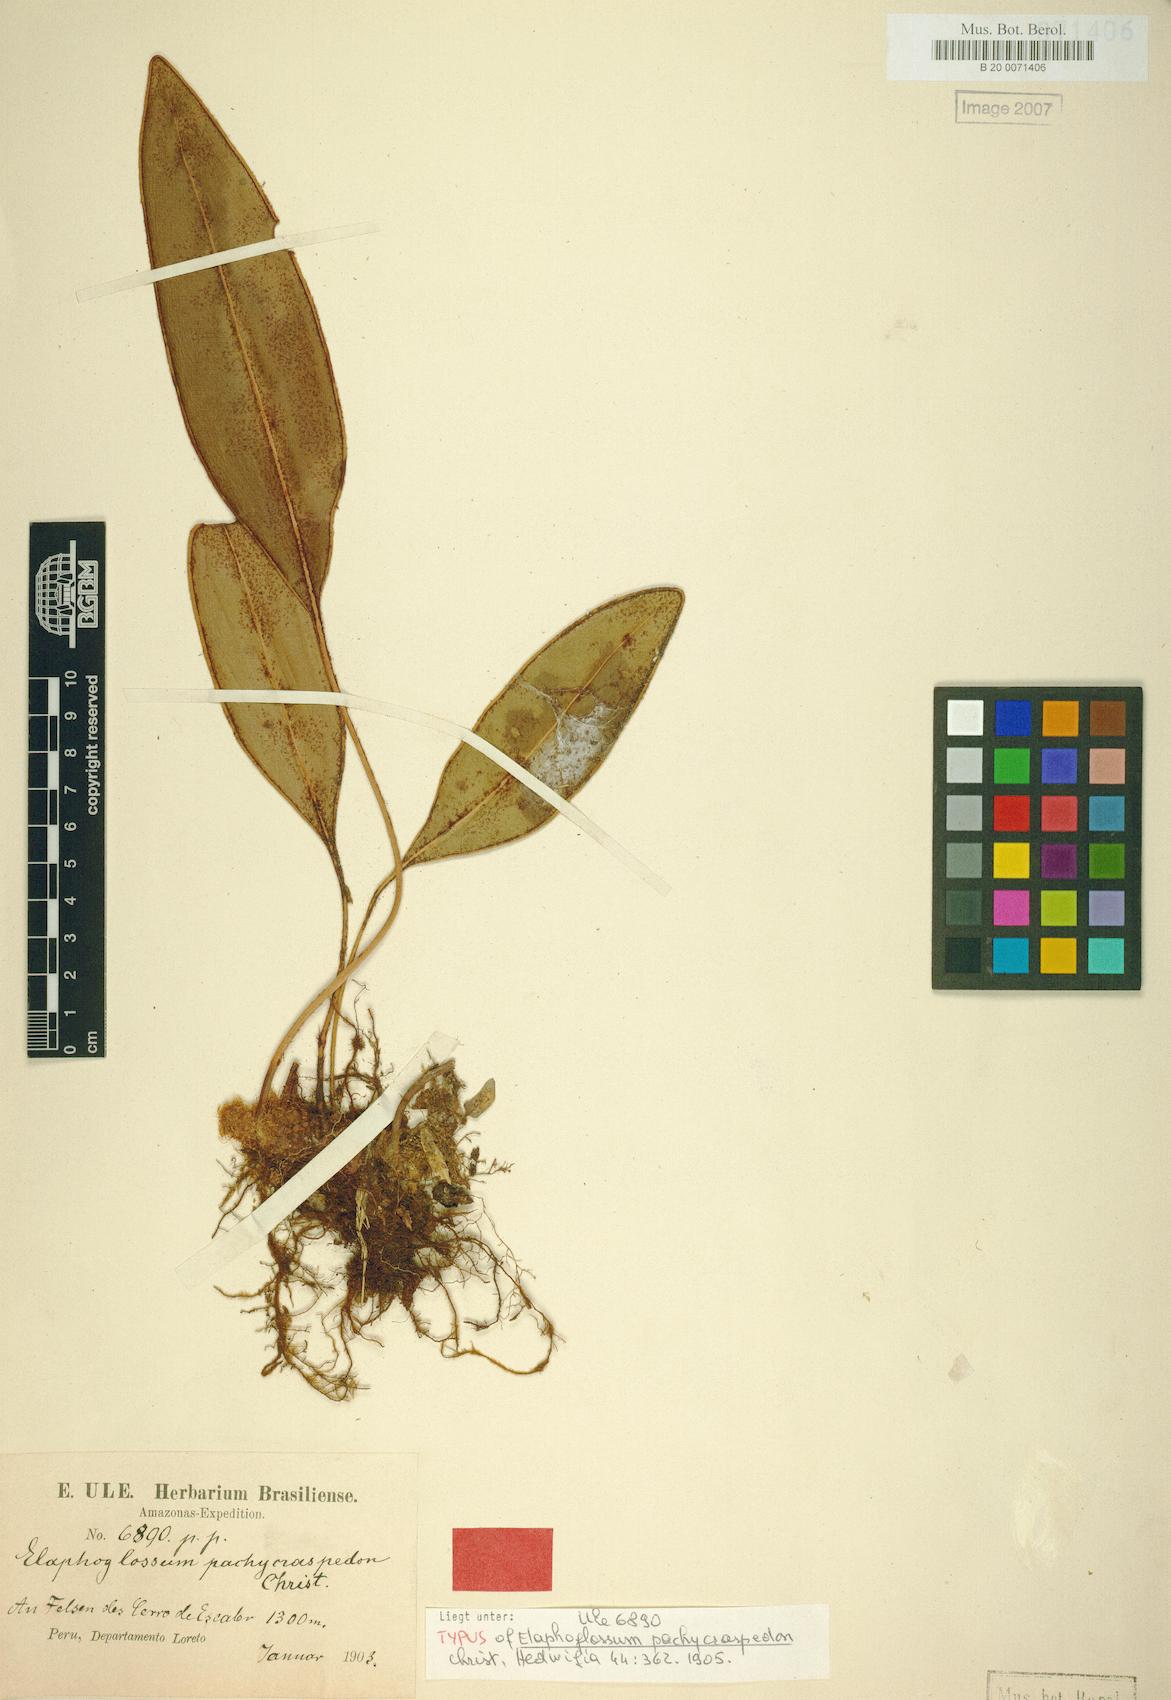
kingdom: Plantae
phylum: Tracheophyta
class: Polypodiopsida
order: Polypodiales
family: Dryopteridaceae
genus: Elaphoglossum
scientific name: Elaphoglossum pachycraspedon
